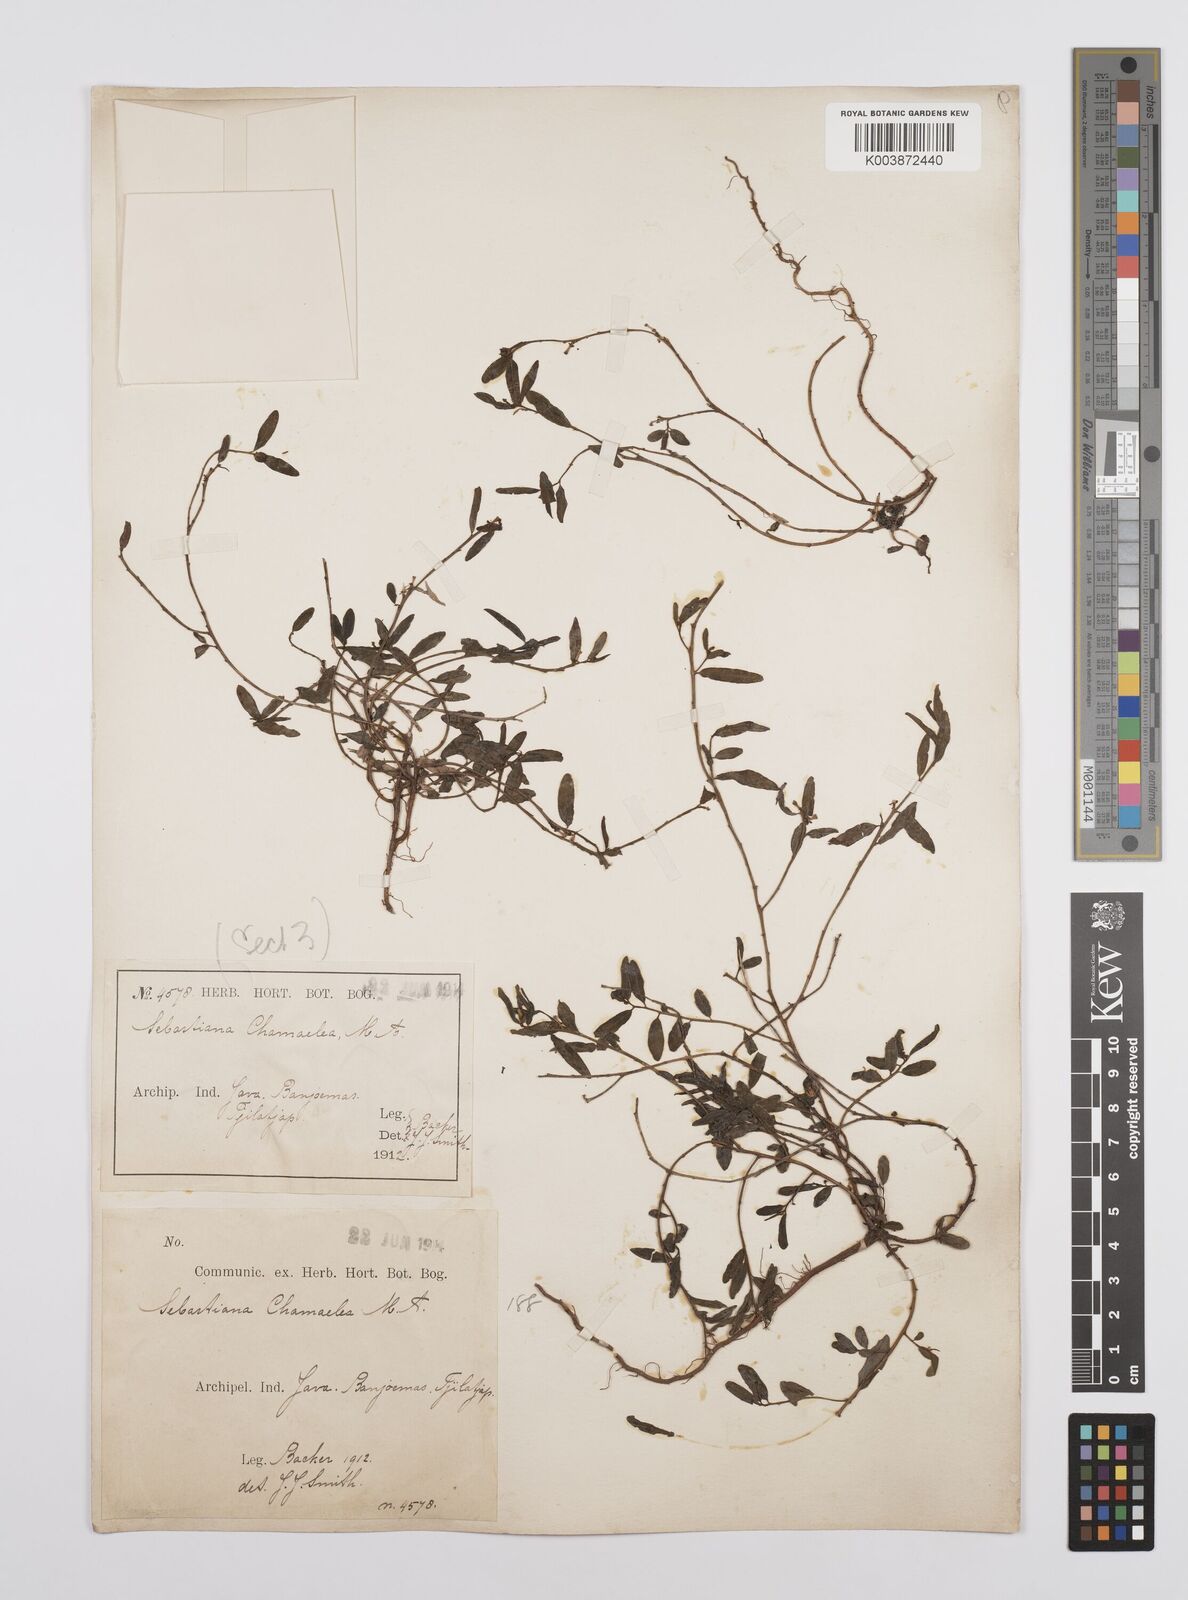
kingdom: Plantae
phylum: Tracheophyta
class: Magnoliopsida
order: Malpighiales
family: Euphorbiaceae
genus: Microstachys
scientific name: Microstachys chamaelea
